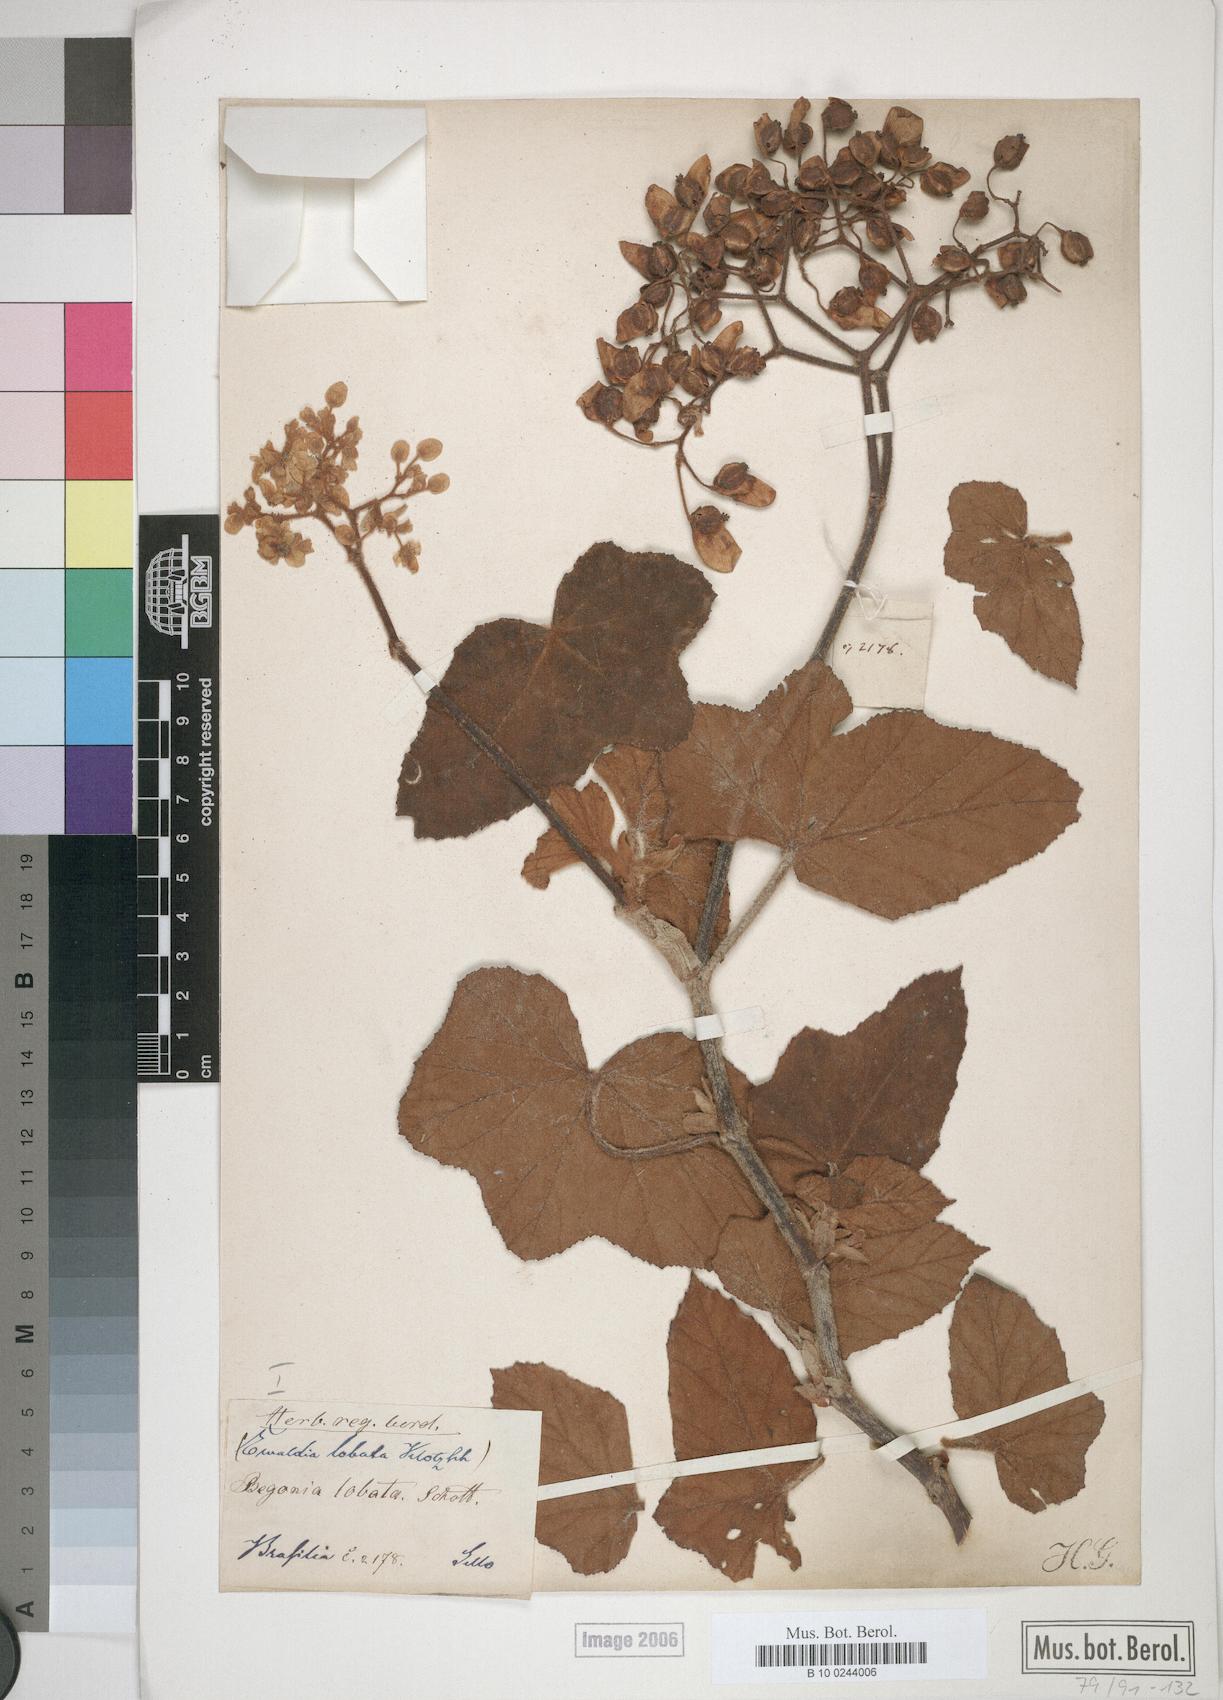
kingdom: Plantae
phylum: Tracheophyta
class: Magnoliopsida
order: Cucurbitales
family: Begoniaceae
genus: Begonia
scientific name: Begonia rufa
